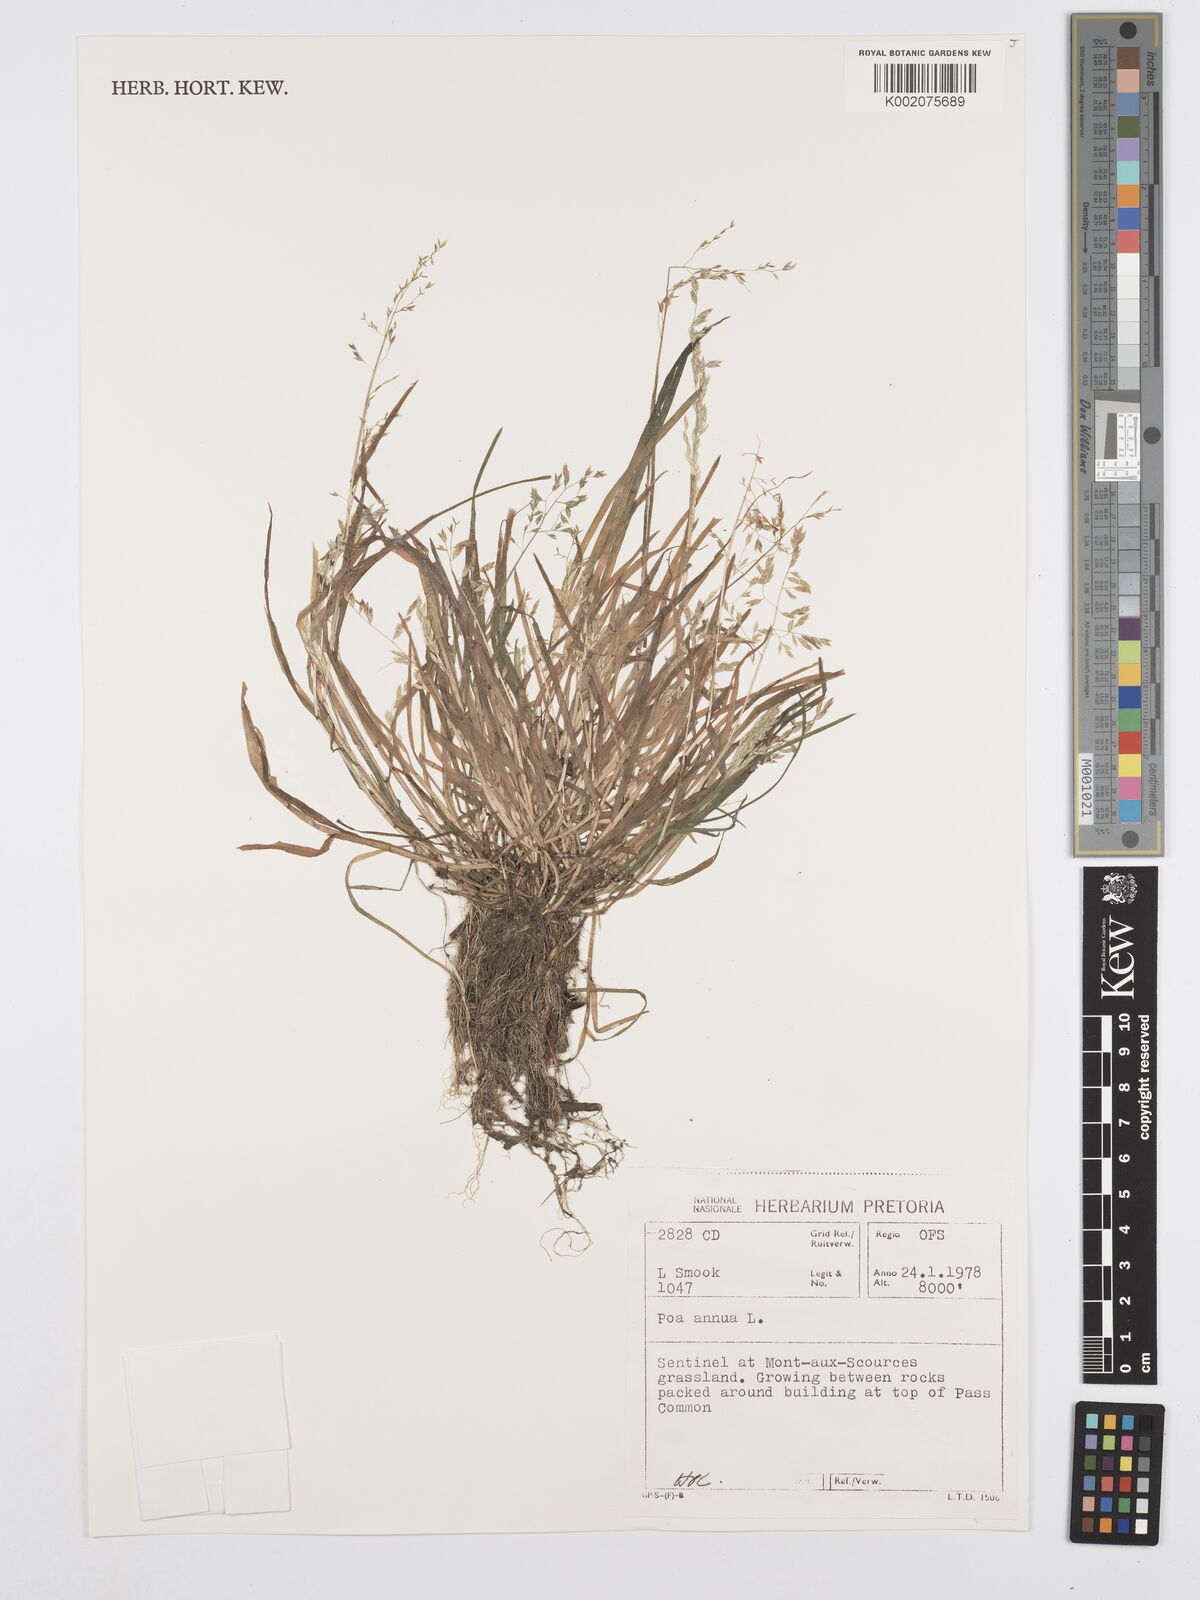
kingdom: Plantae
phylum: Tracheophyta
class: Liliopsida
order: Poales
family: Poaceae
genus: Poa
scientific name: Poa annua
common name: Annual bluegrass
